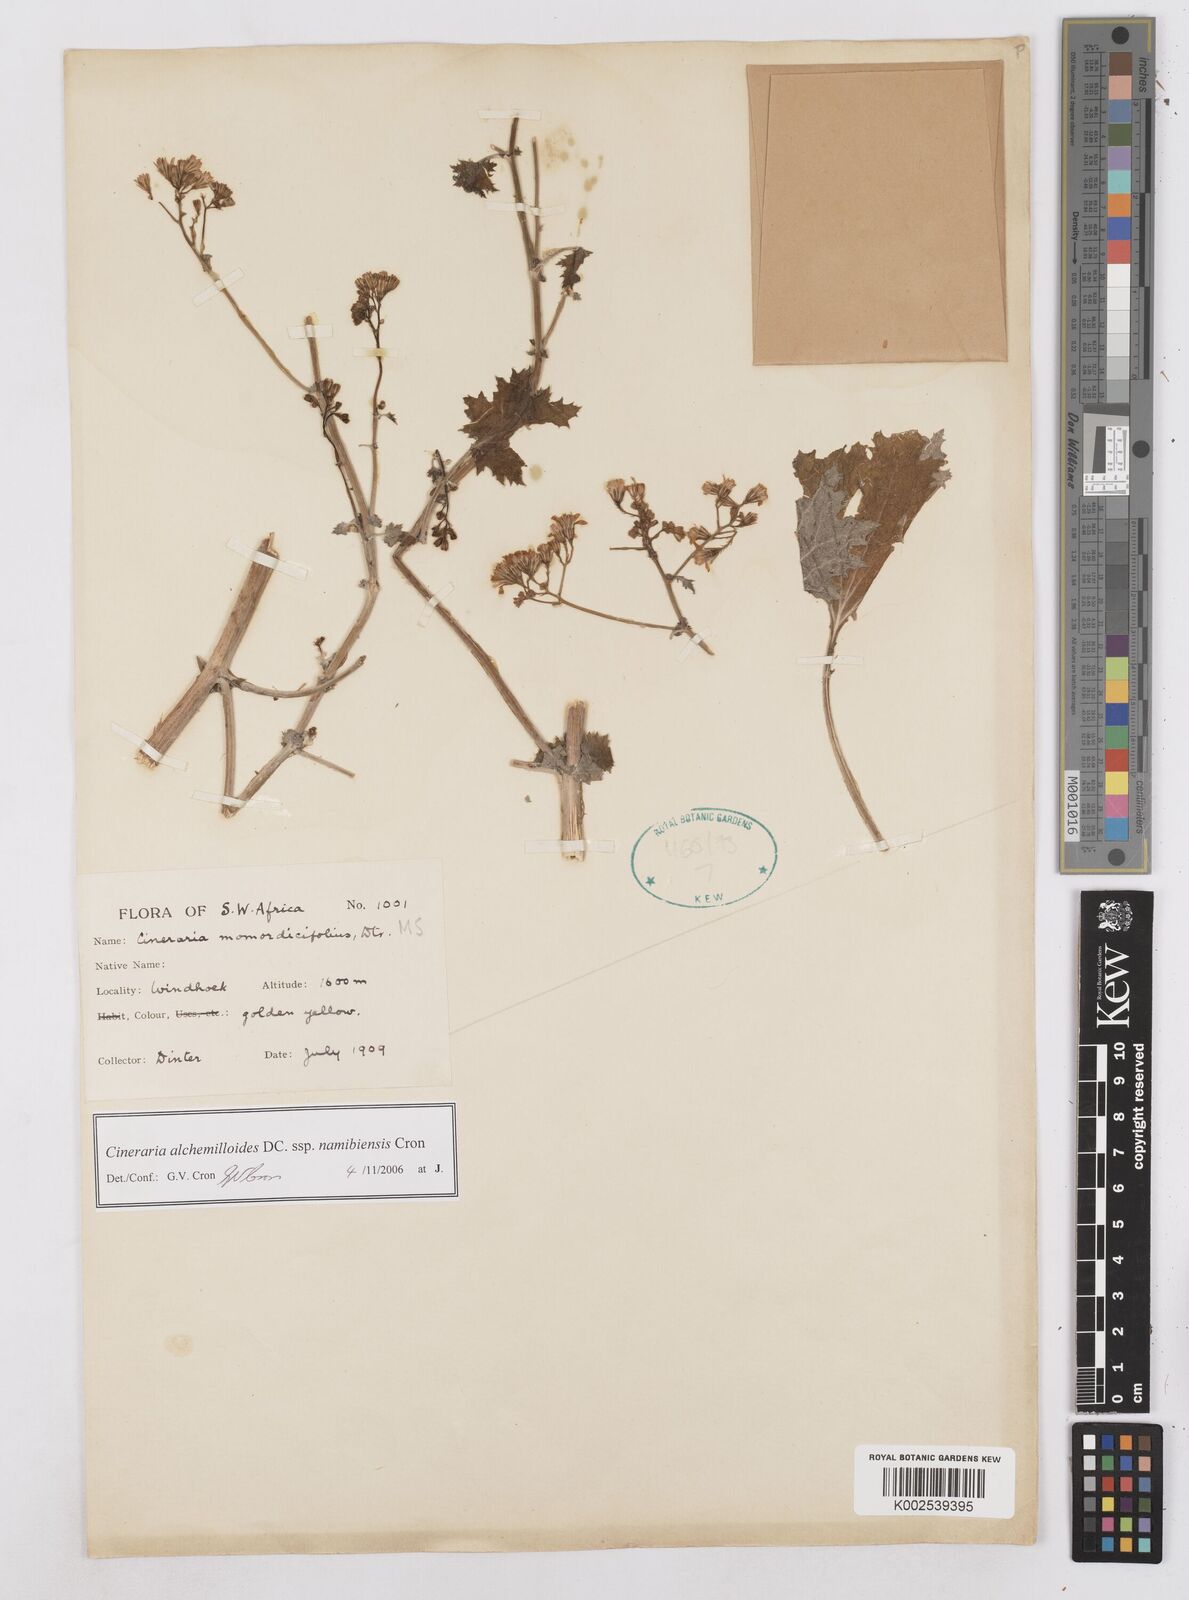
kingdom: Plantae
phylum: Tracheophyta
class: Magnoliopsida
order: Asterales
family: Asteraceae
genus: Cineraria
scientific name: Cineraria alchemilloides
